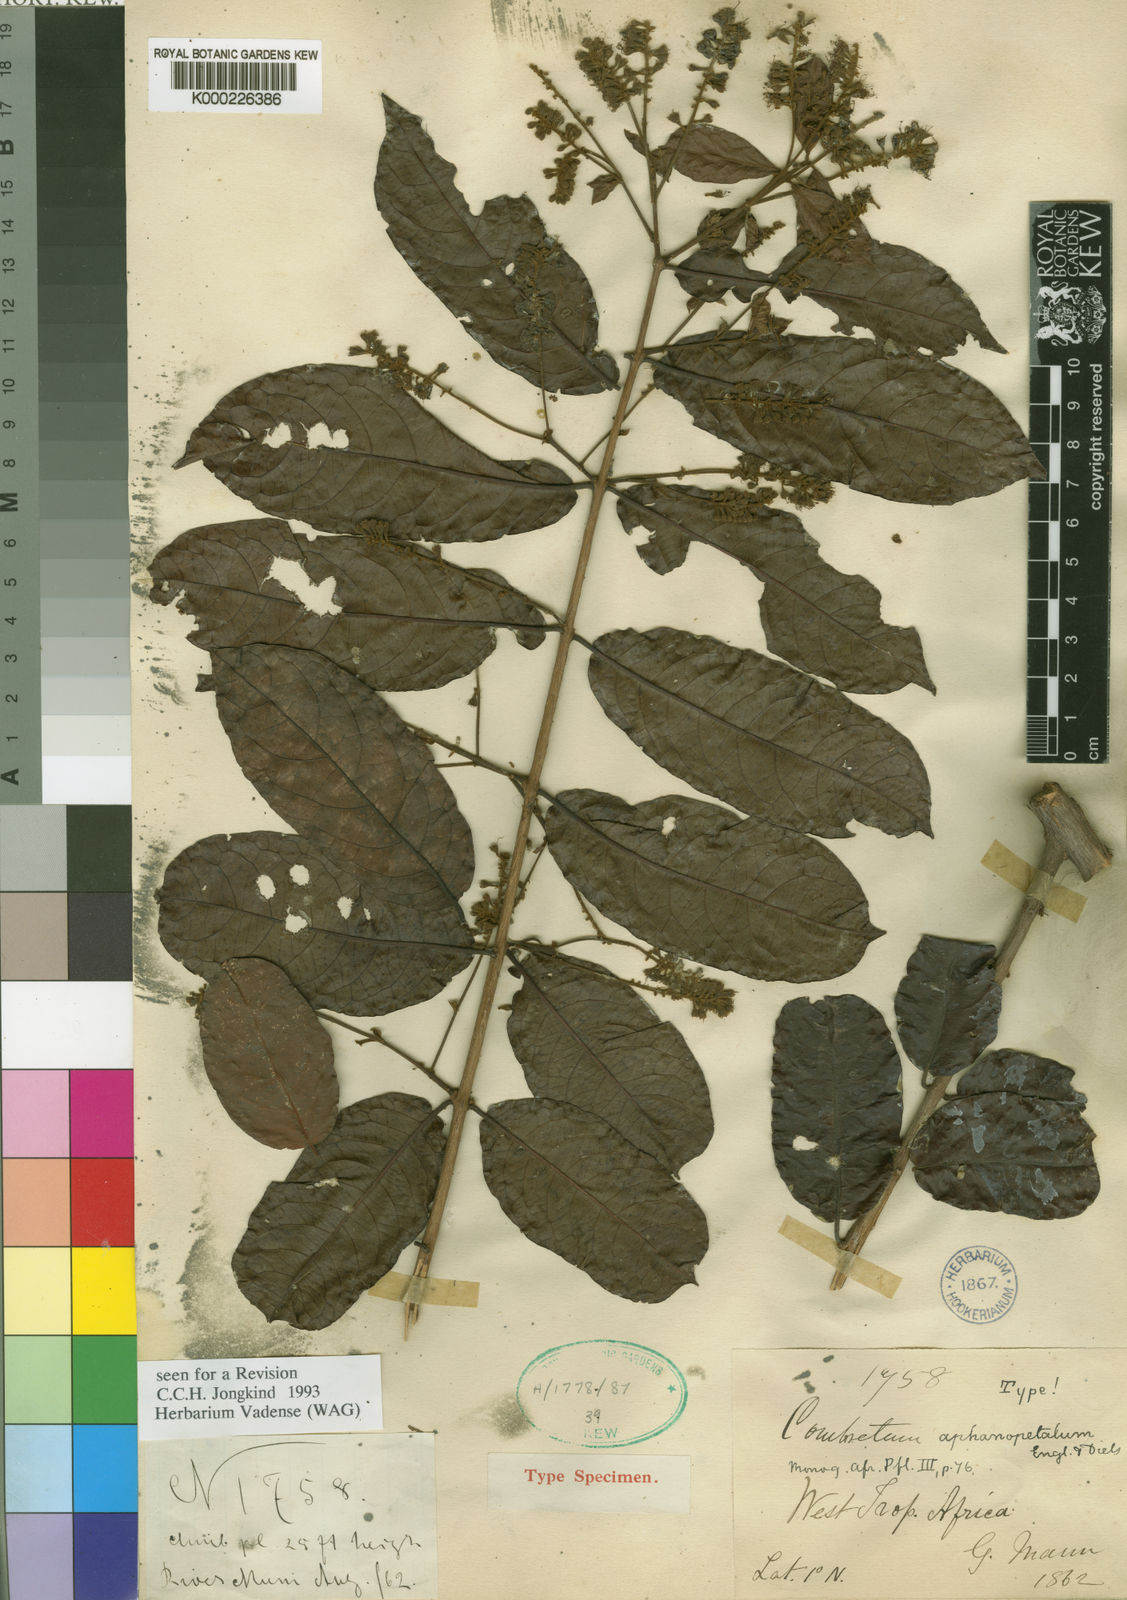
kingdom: Plantae
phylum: Tracheophyta
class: Magnoliopsida
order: Myrtales
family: Combretaceae
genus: Combretum
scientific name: Combretum aphanopetalum
